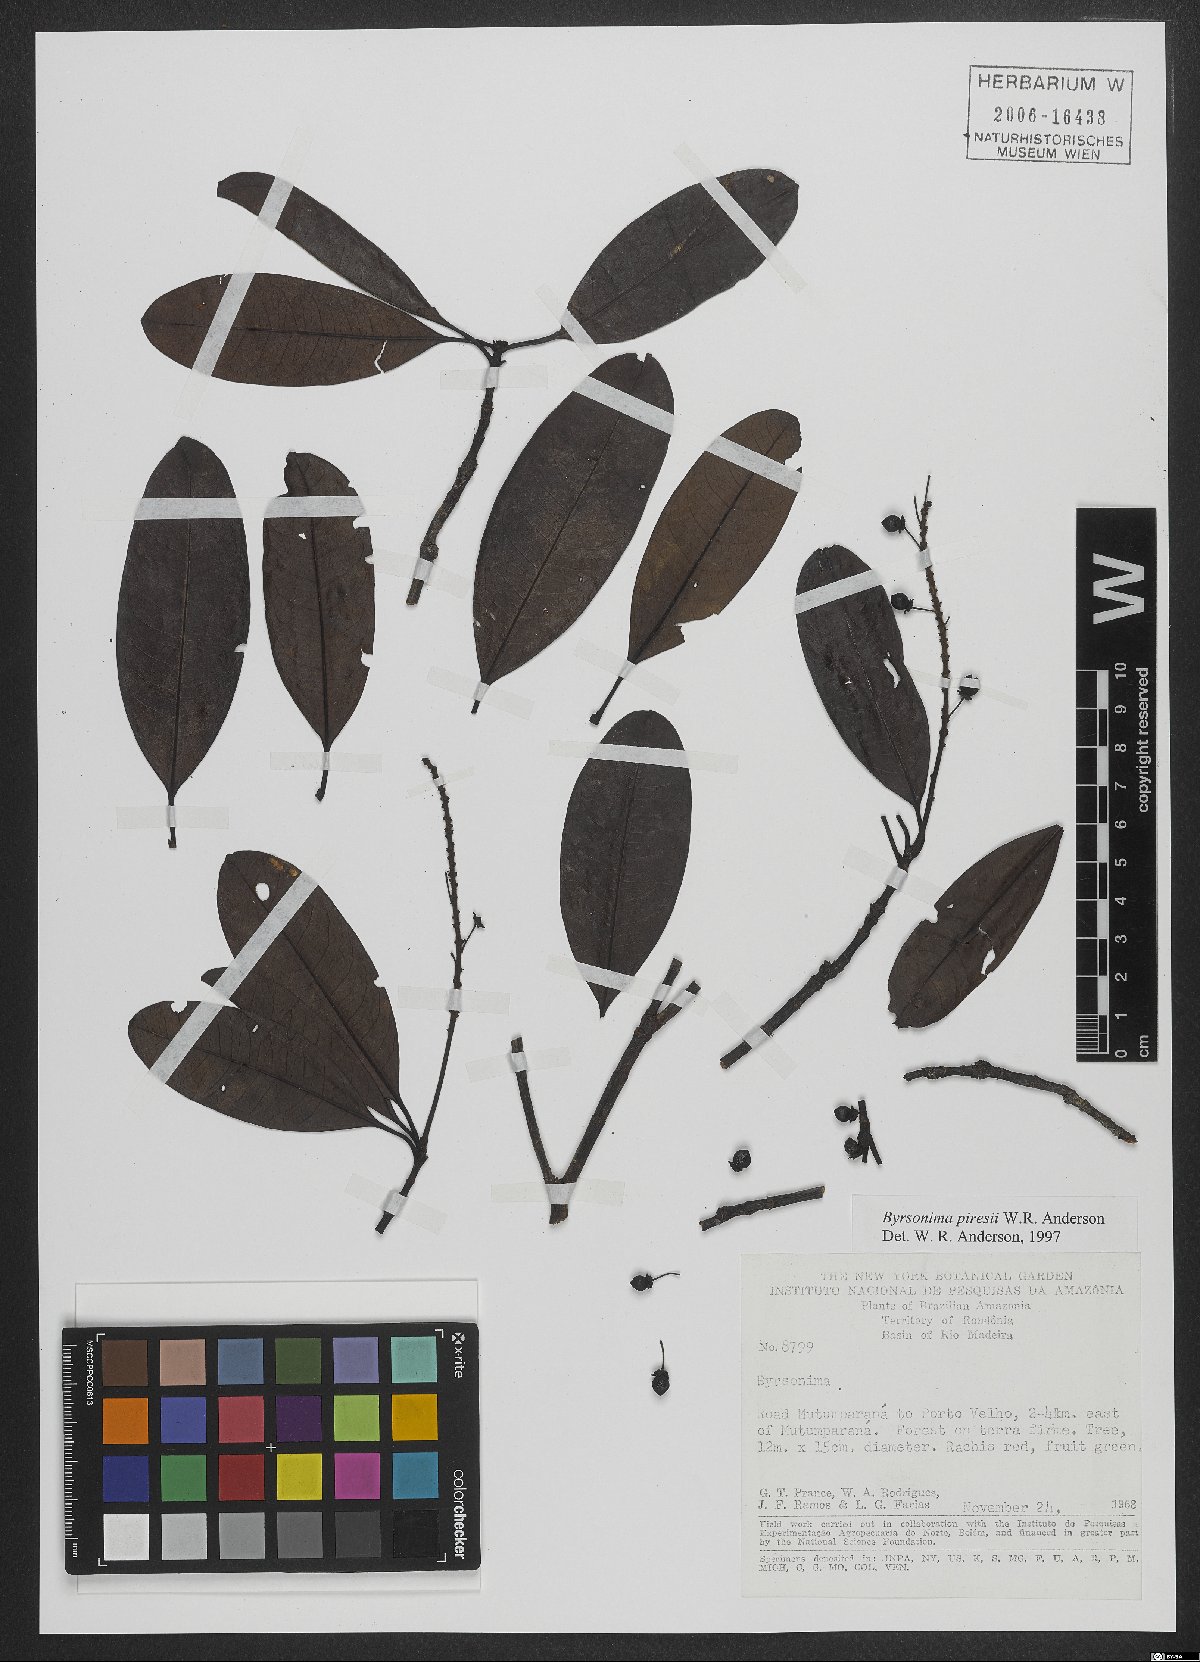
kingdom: Plantae
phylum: Tracheophyta
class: Magnoliopsida
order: Malpighiales
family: Malpighiaceae
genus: Byrsonima
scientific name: Byrsonima piresii
